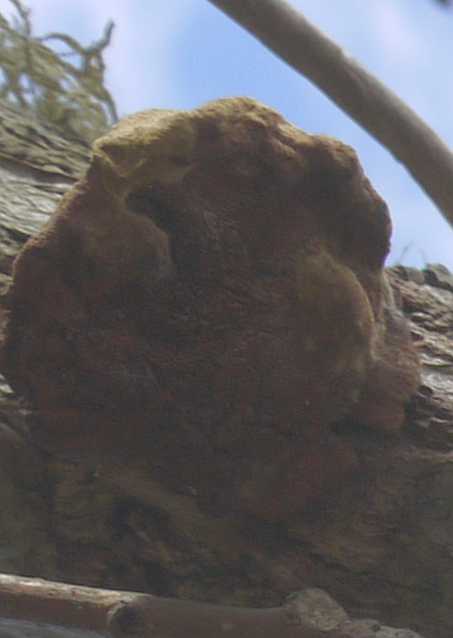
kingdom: Fungi
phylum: Basidiomycota
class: Agaricomycetes
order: Polyporales
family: Phanerochaetaceae
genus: Hapalopilus
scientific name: Hapalopilus rutilans
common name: rødlig okkerporesvamp
